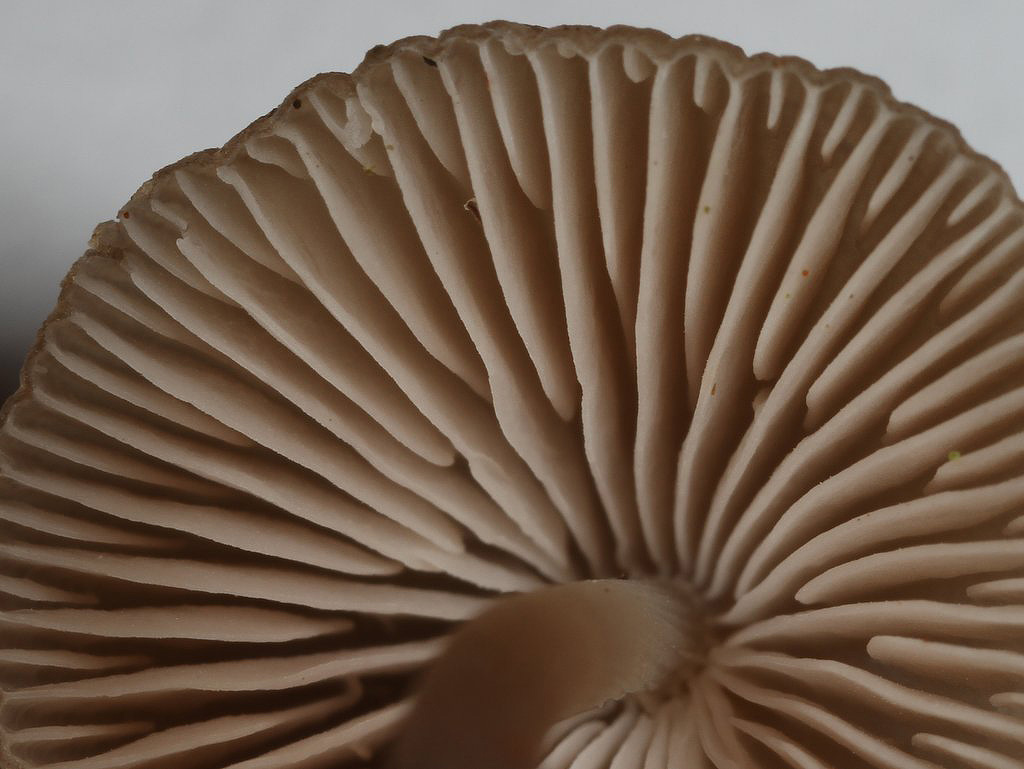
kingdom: Fungi
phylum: Basidiomycota
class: Agaricomycetes
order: Agaricales
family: Mycenaceae
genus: Mycena
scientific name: Mycena polygramma
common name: mangestribet huesvamp
